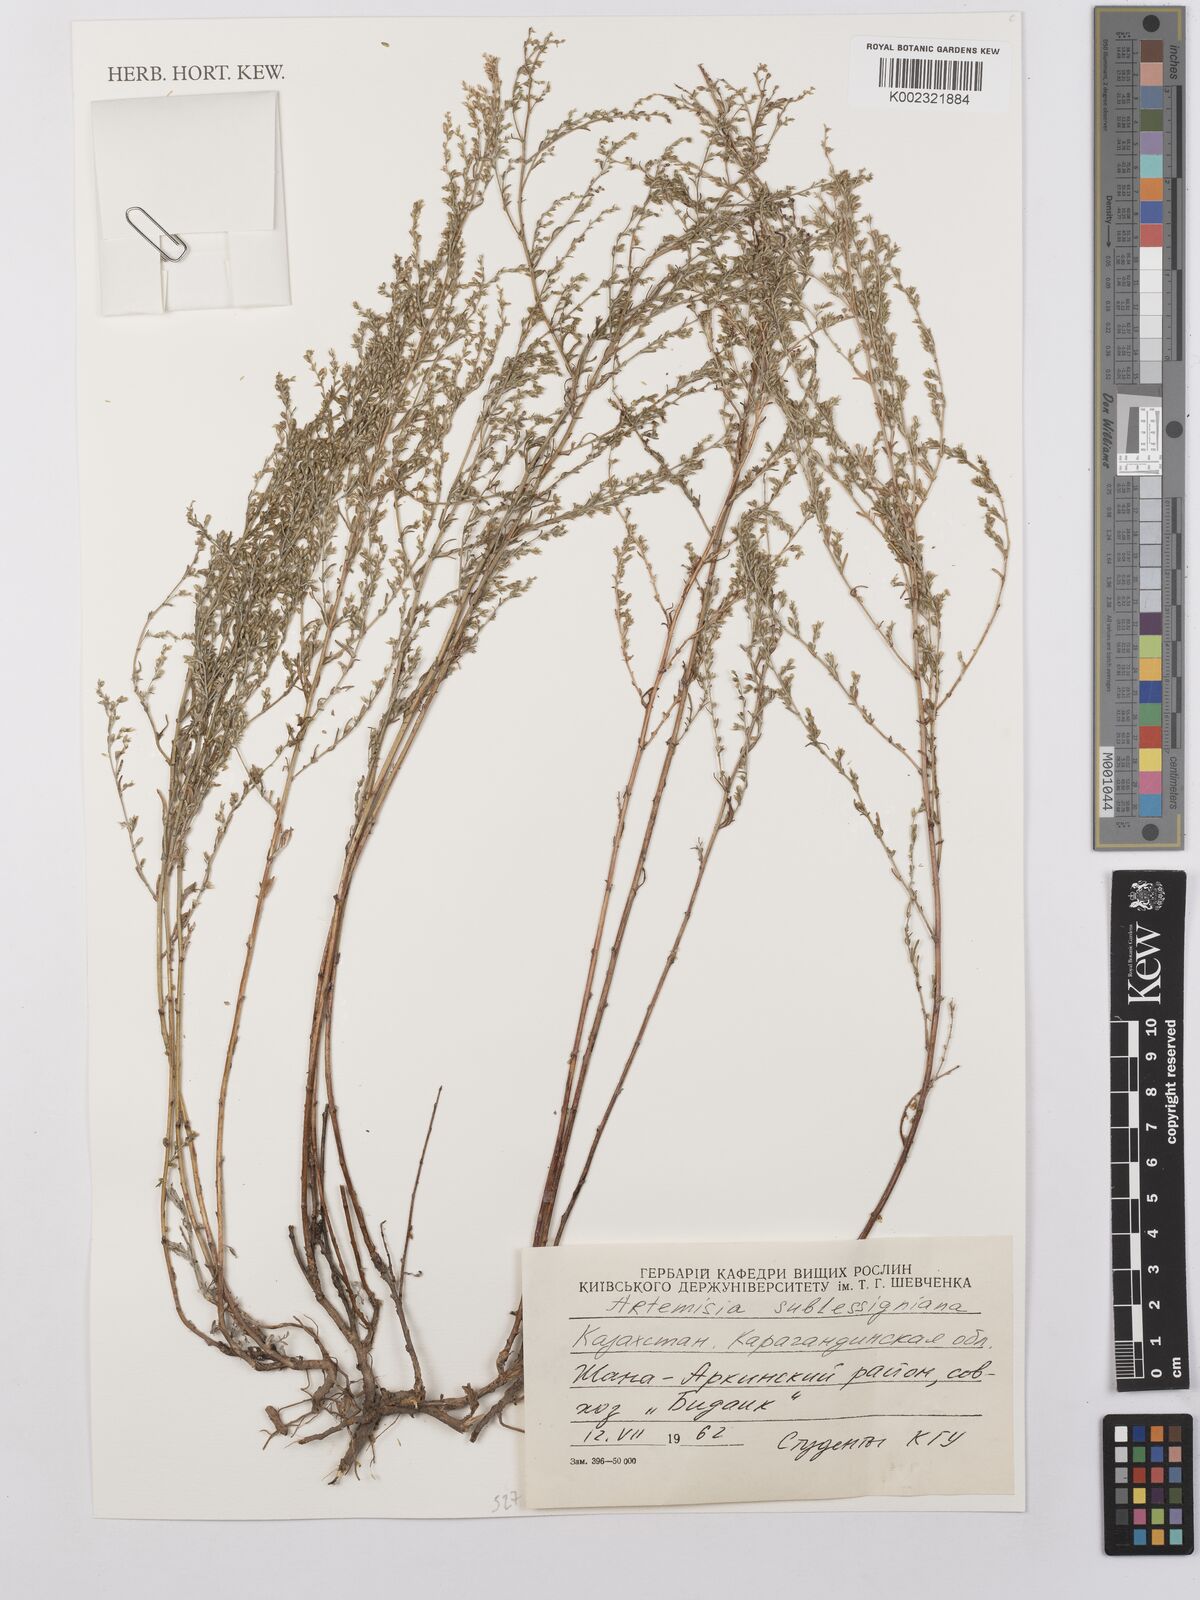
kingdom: Plantae
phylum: Tracheophyta
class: Magnoliopsida
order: Asterales
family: Asteraceae
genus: Artemisia
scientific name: Artemisia sublessingiana
